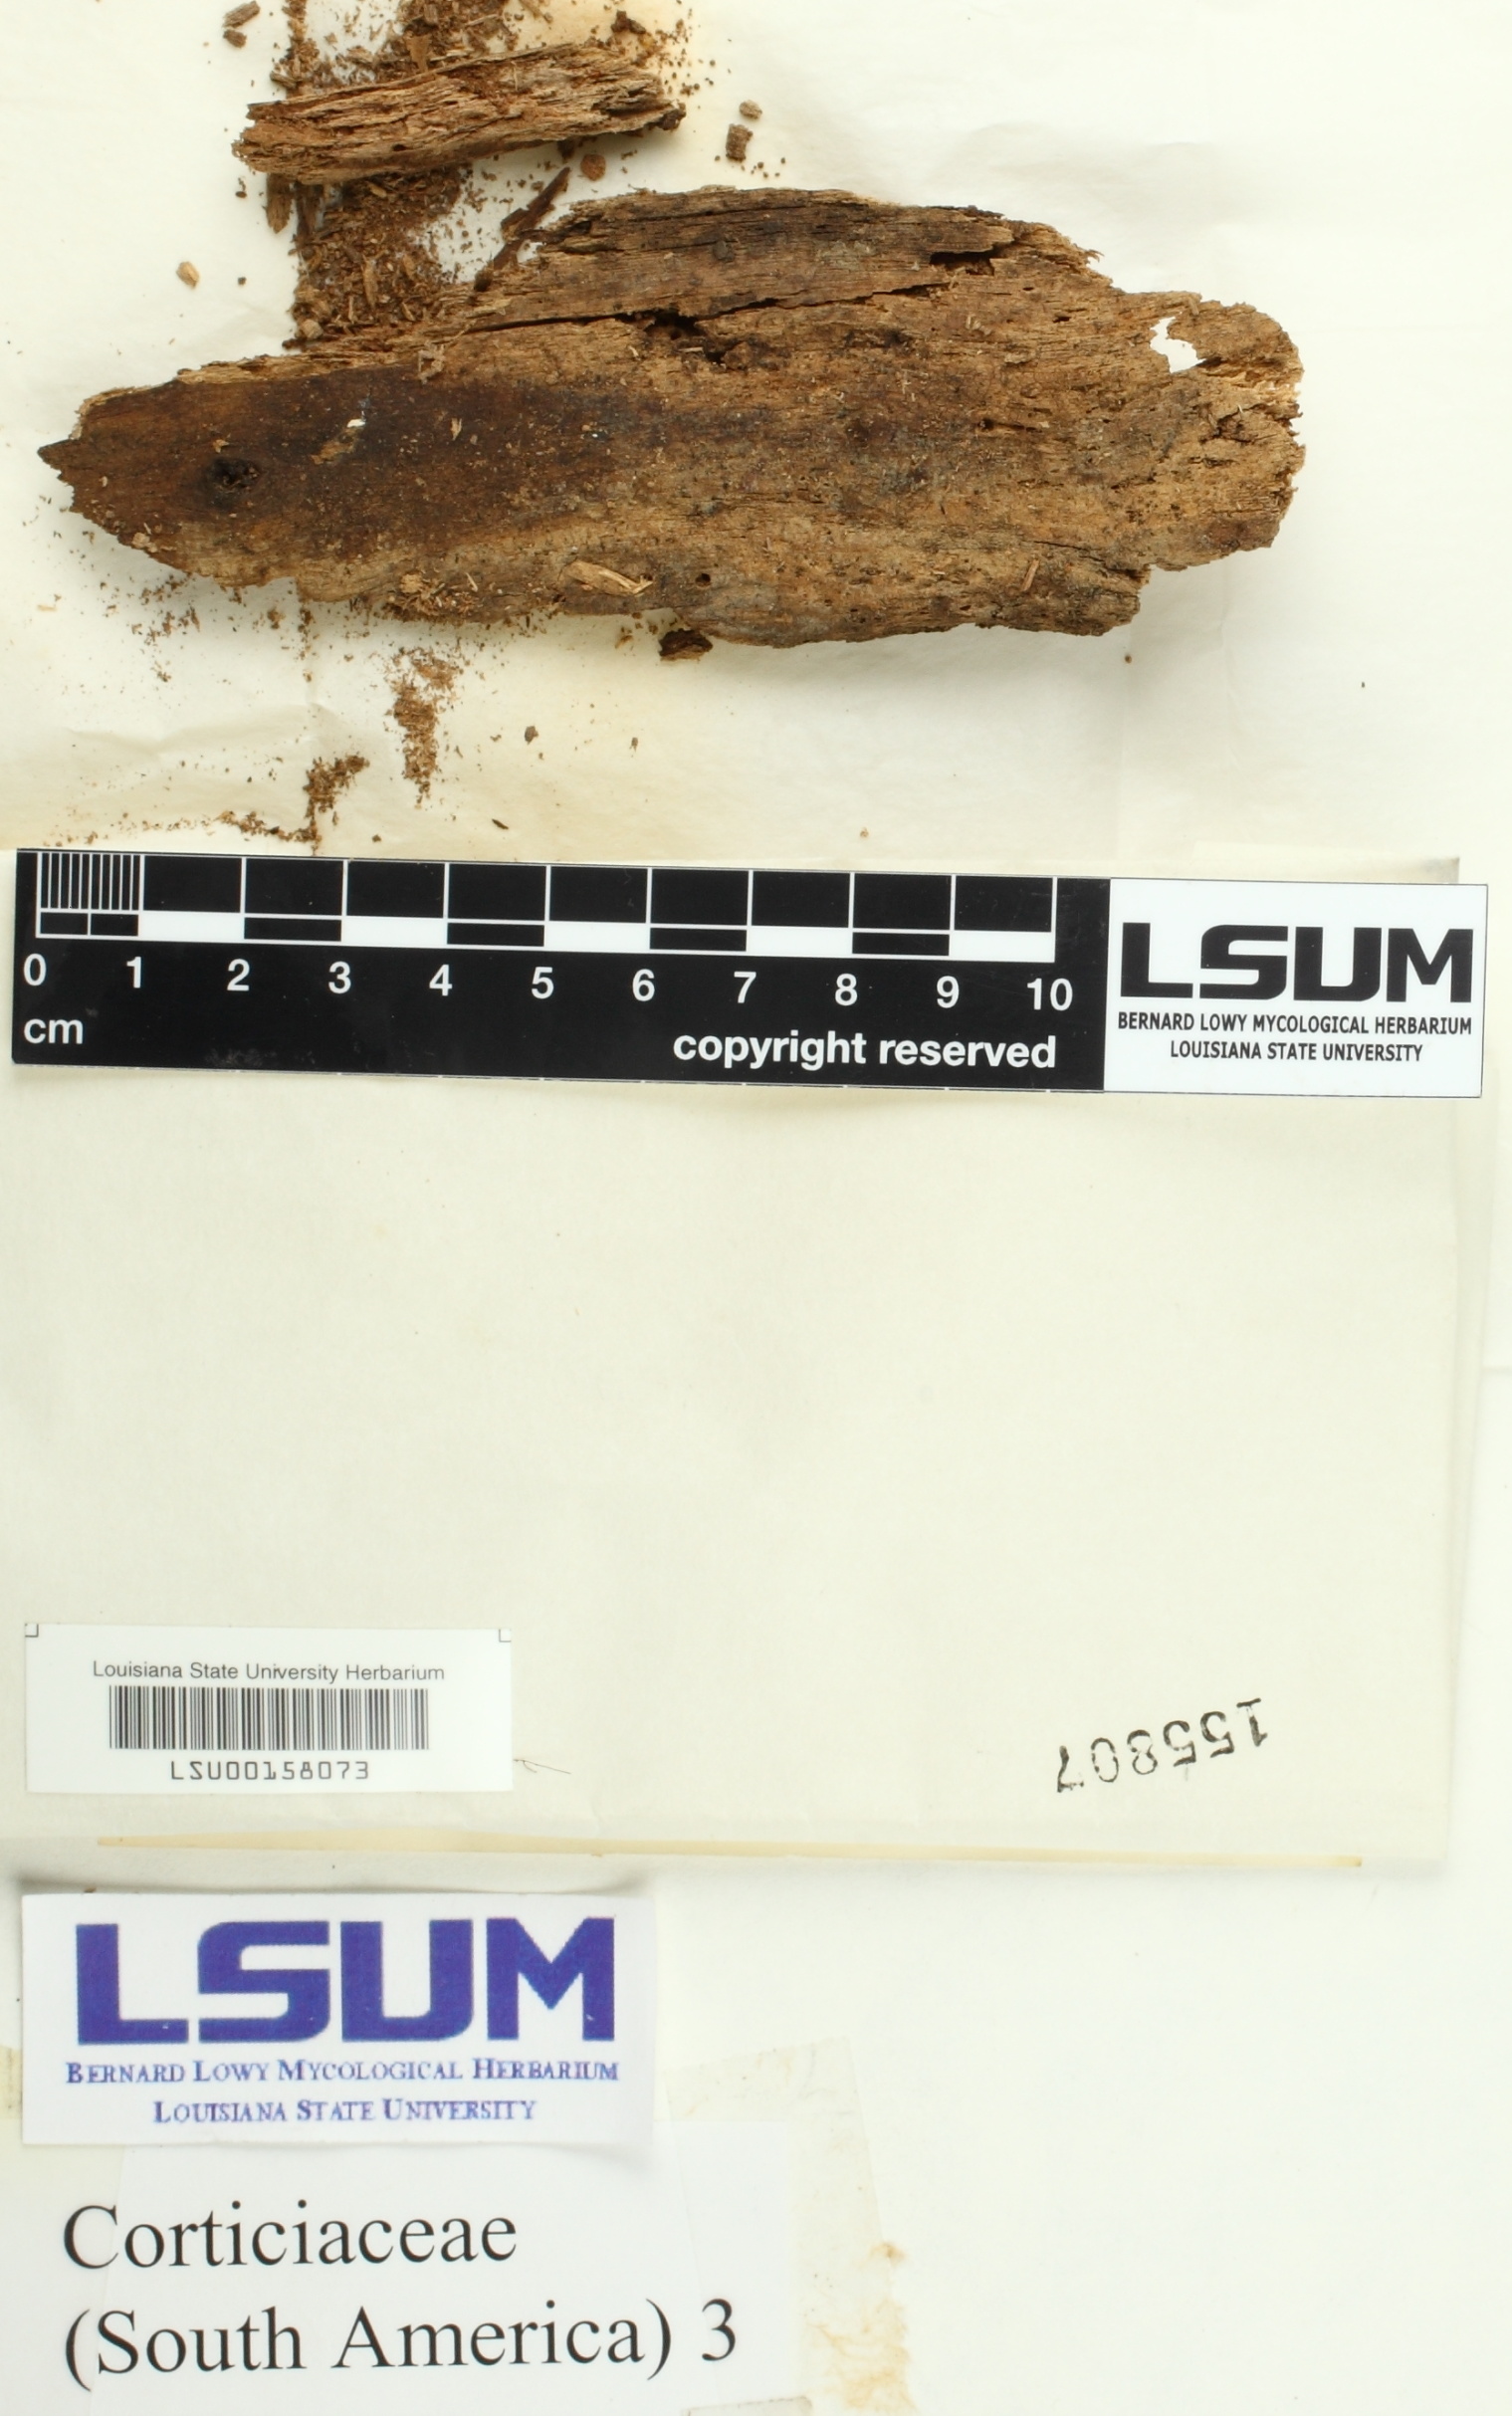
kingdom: Fungi
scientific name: Fungi
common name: Fungi
